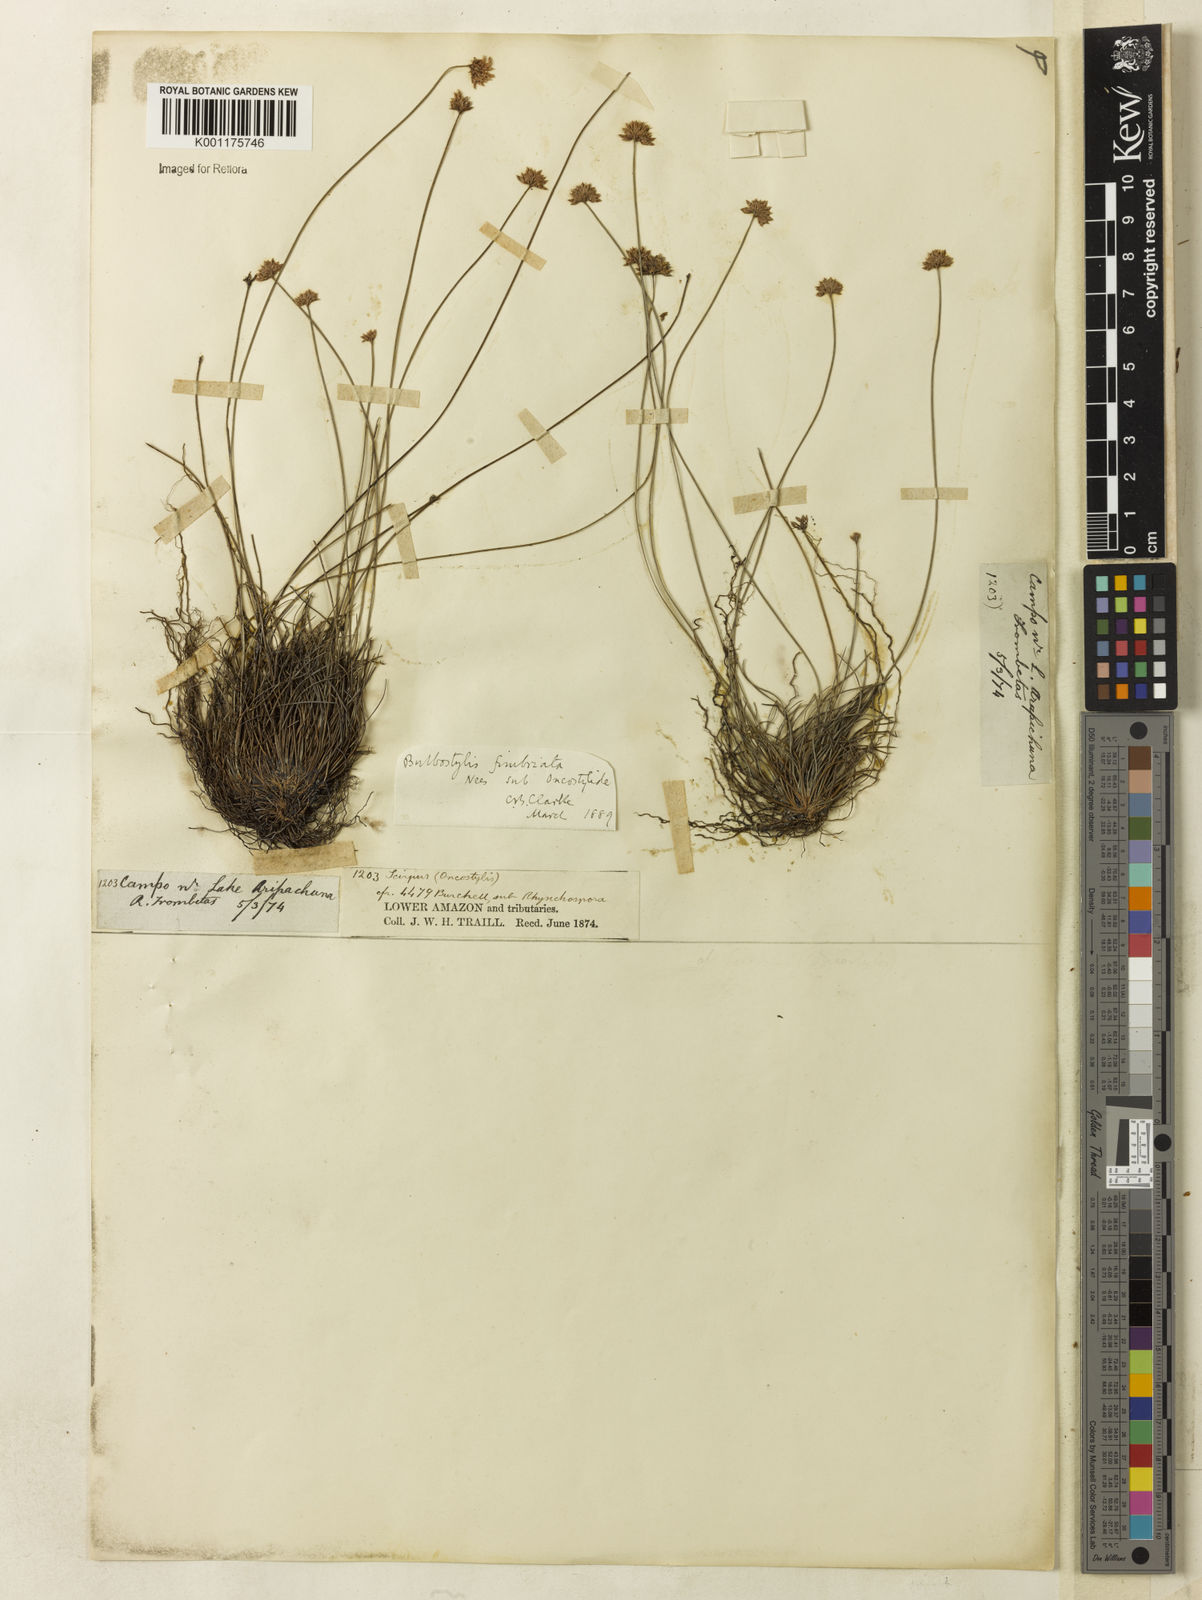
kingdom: Plantae
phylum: Tracheophyta
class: Magnoliopsida
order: Myrtales
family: Myrtaceae
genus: Myrcia
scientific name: Myrcia polygama
